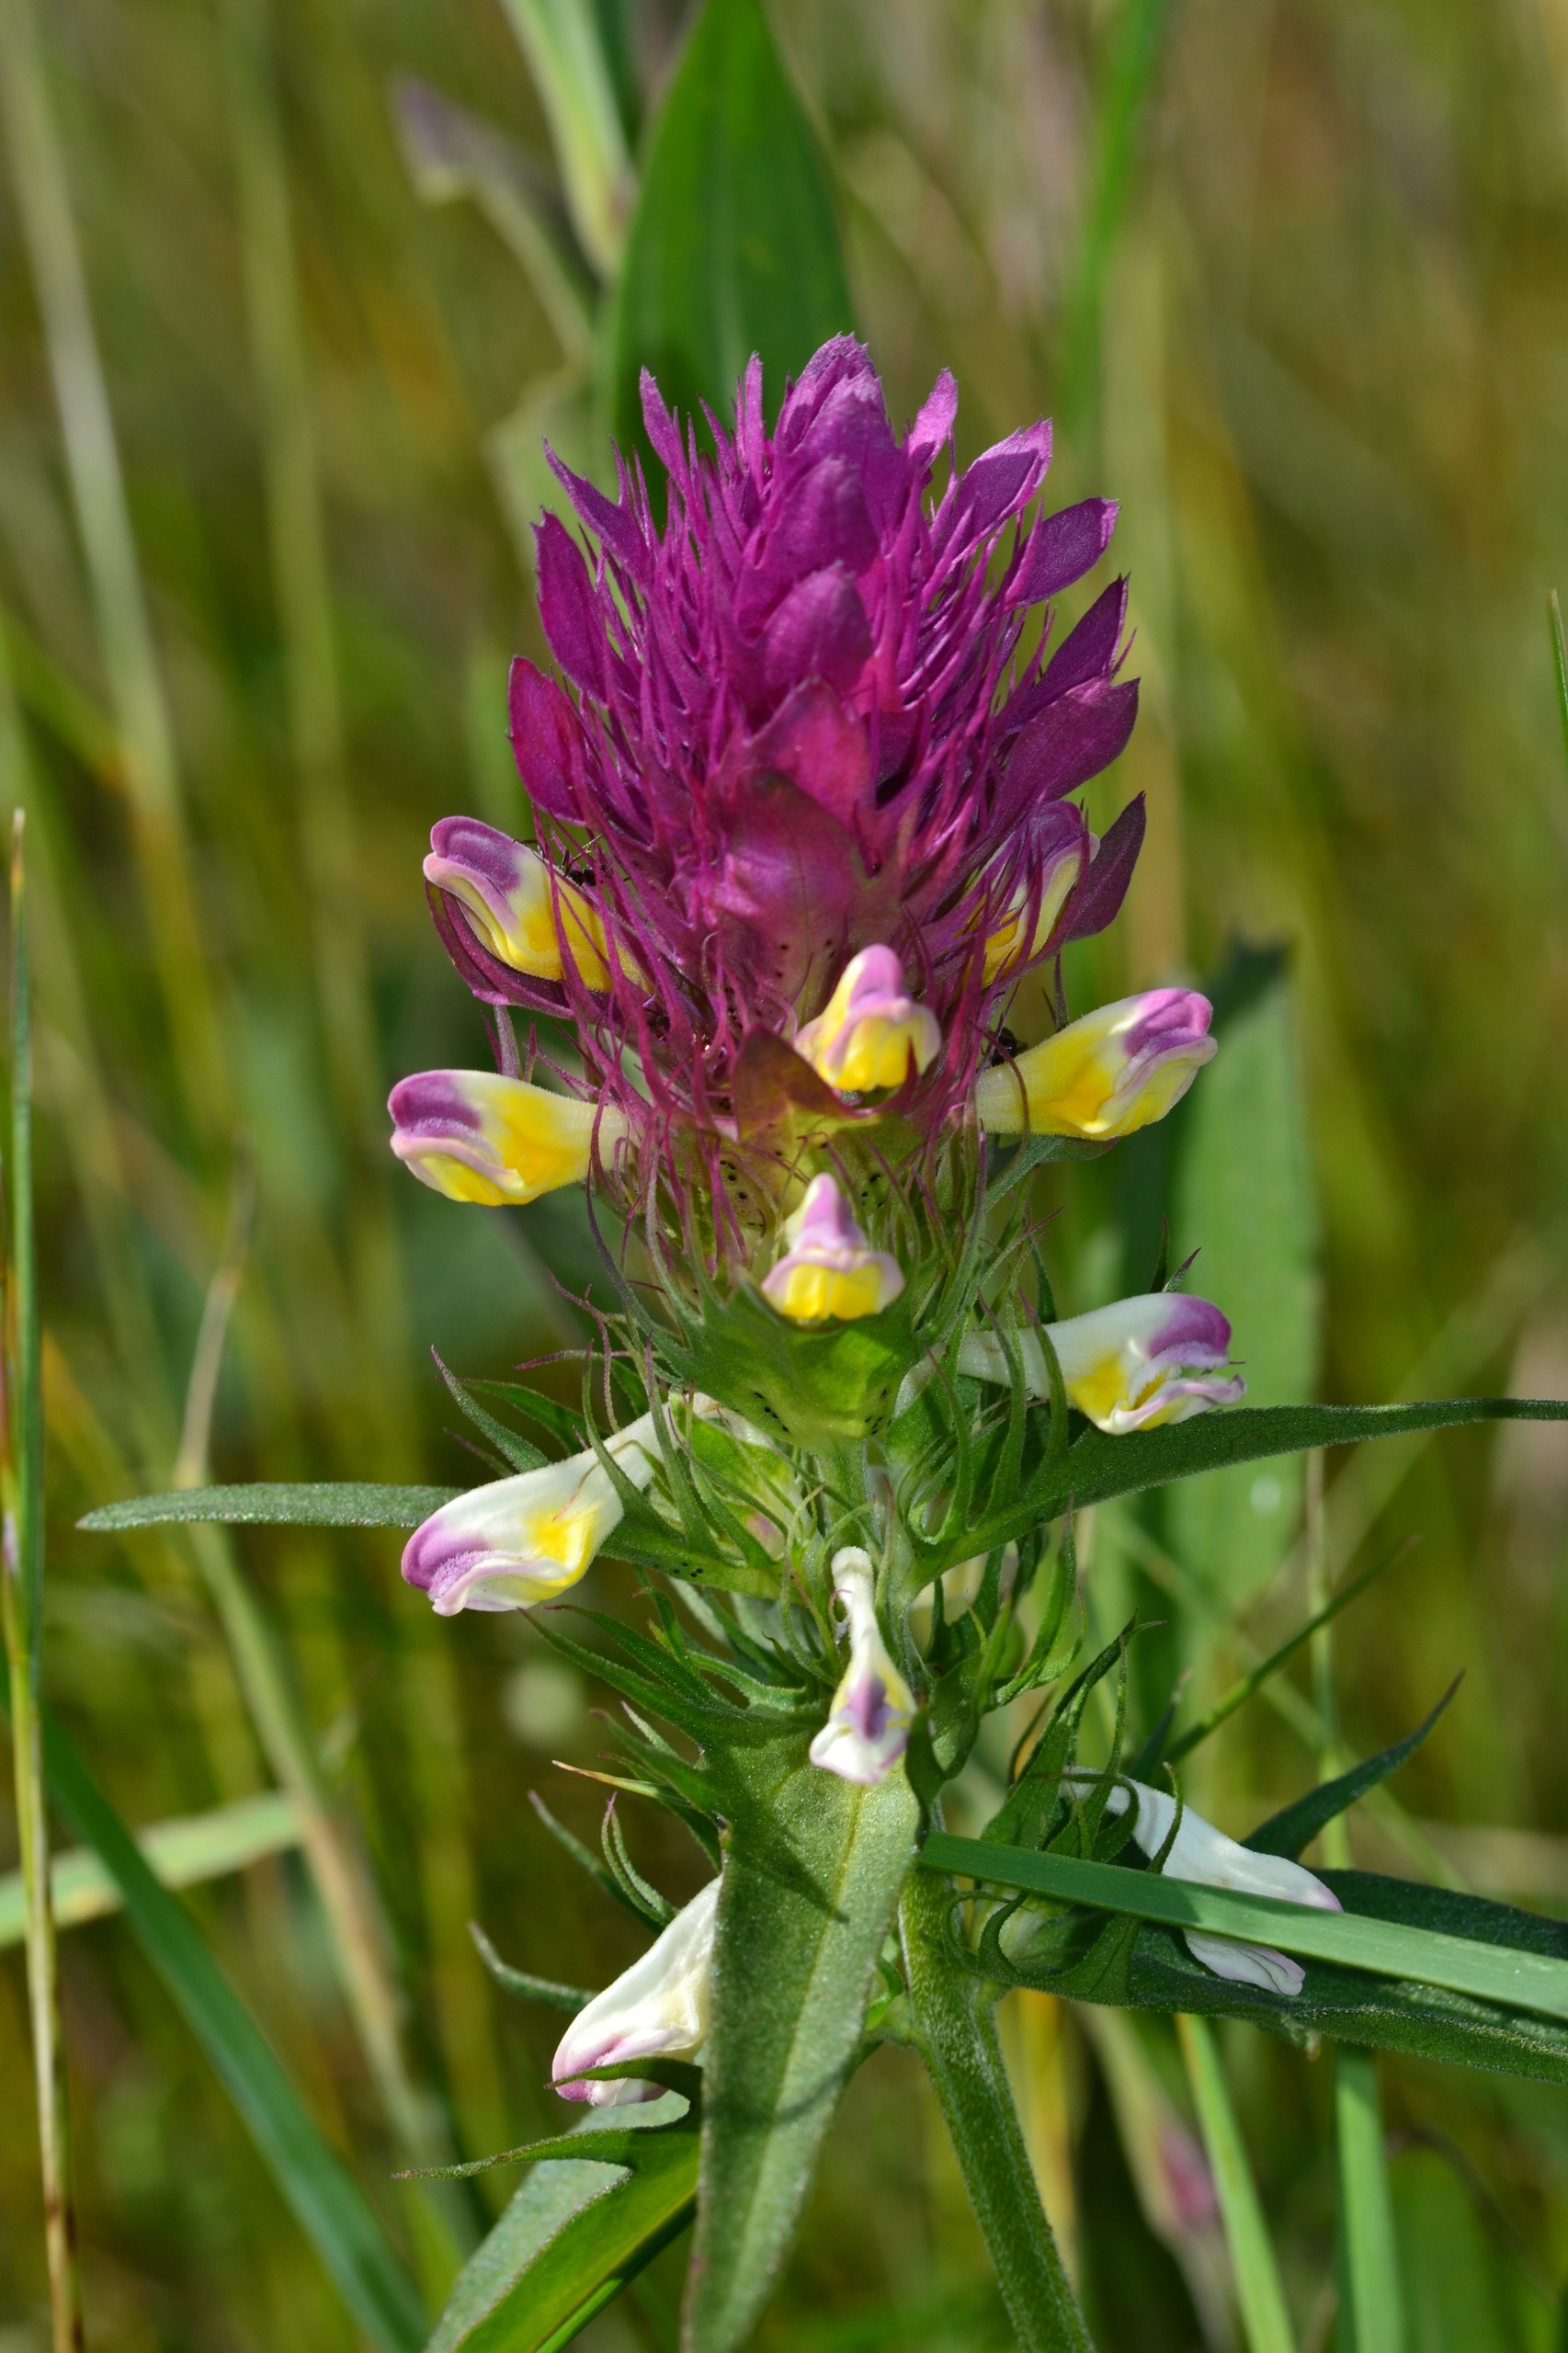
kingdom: Plantae
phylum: Tracheophyta
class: Magnoliopsida
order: Lamiales
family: Orobanchaceae
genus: Melampyrum
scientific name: Melampyrum arvense
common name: Ager-kohvede
